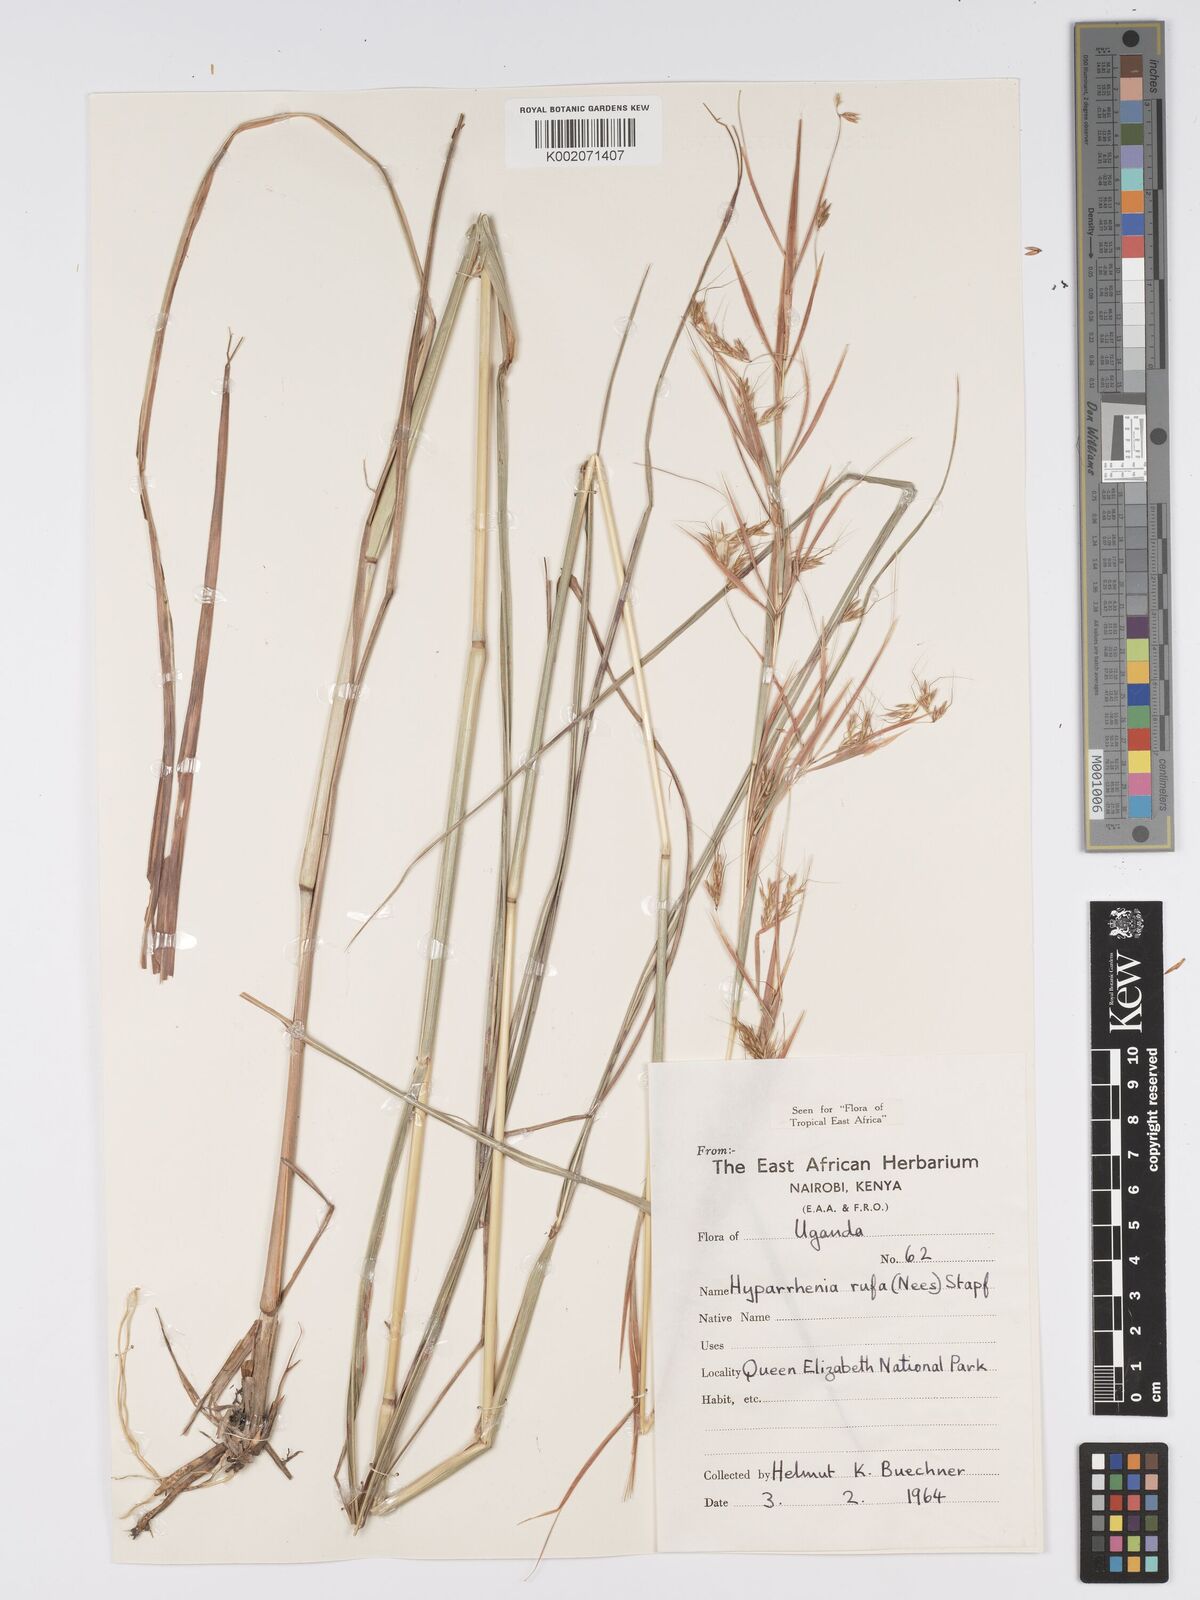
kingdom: Plantae
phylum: Tracheophyta
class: Liliopsida
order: Poales
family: Poaceae
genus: Hyparrhenia
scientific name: Hyparrhenia rufa
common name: Jaraguagrass
